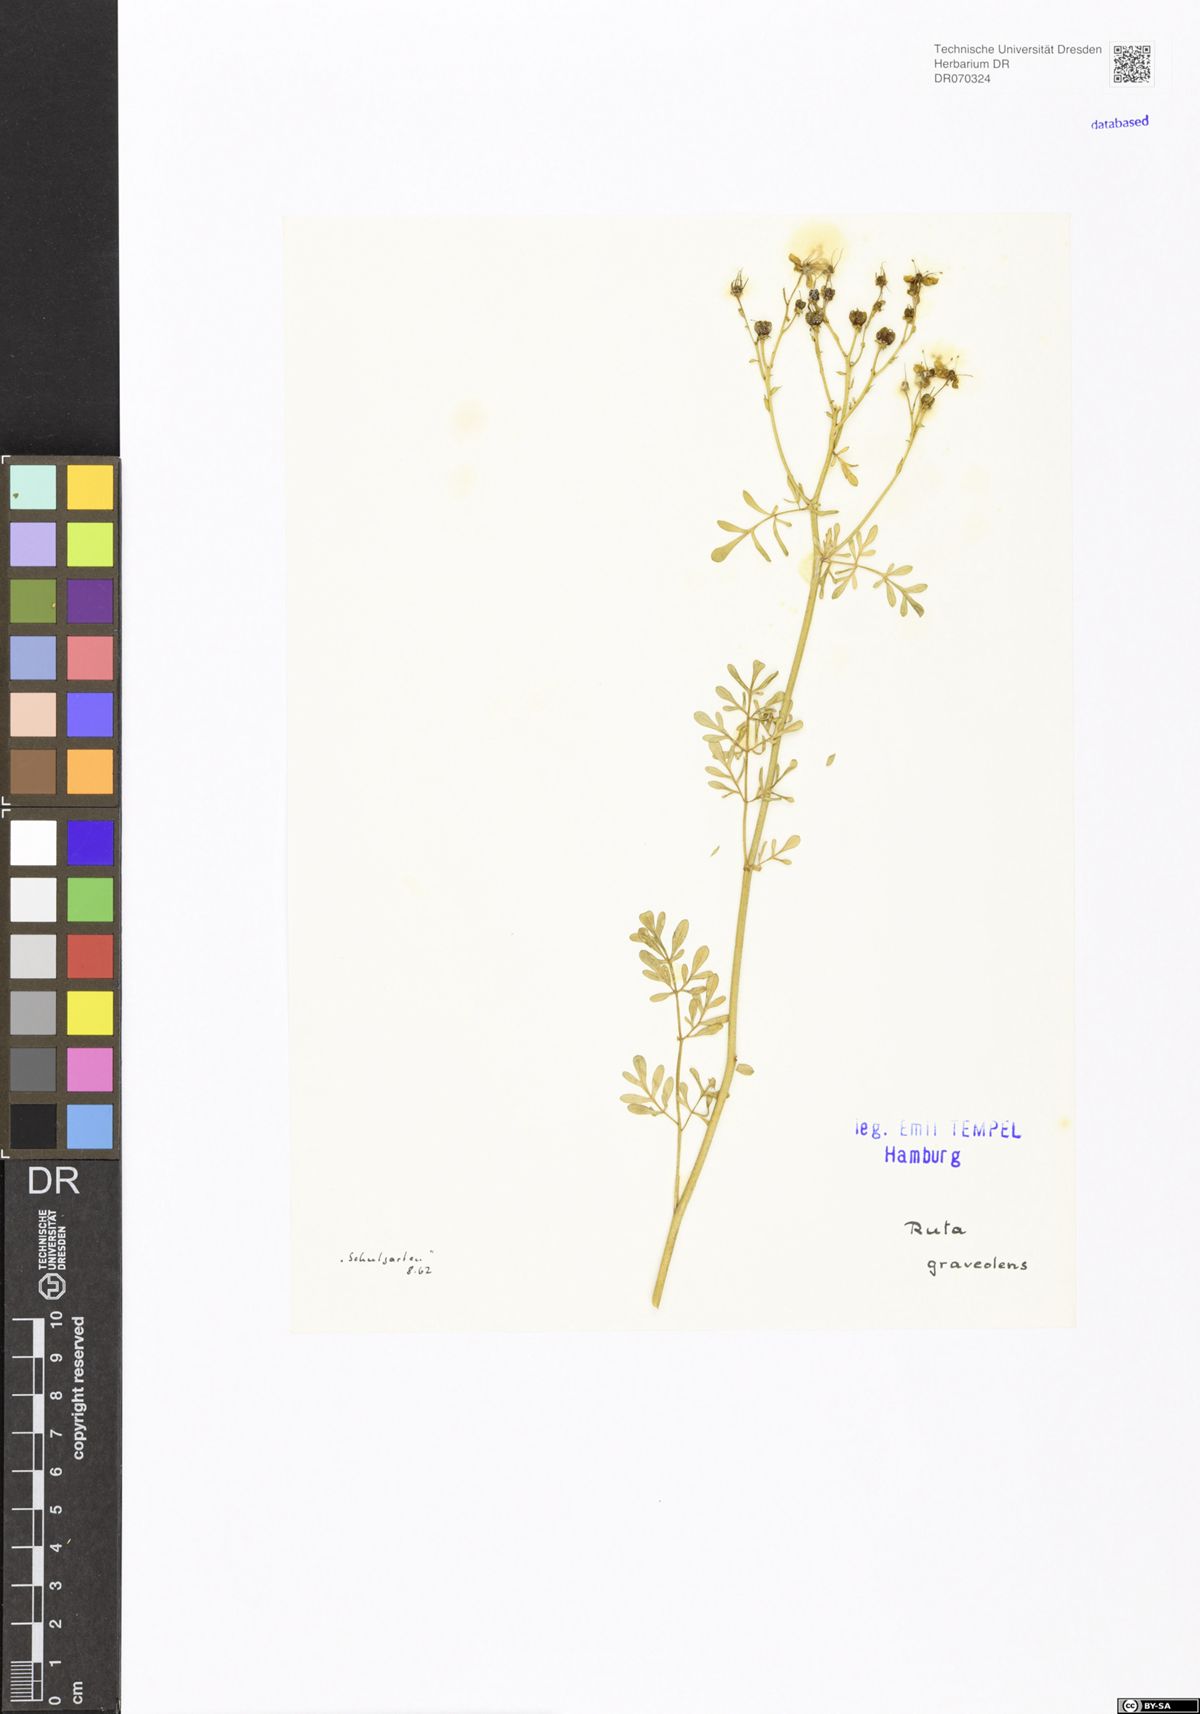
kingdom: Plantae
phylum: Tracheophyta
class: Magnoliopsida
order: Sapindales
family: Rutaceae
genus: Ruta
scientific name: Ruta graveolens
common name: Common rue
